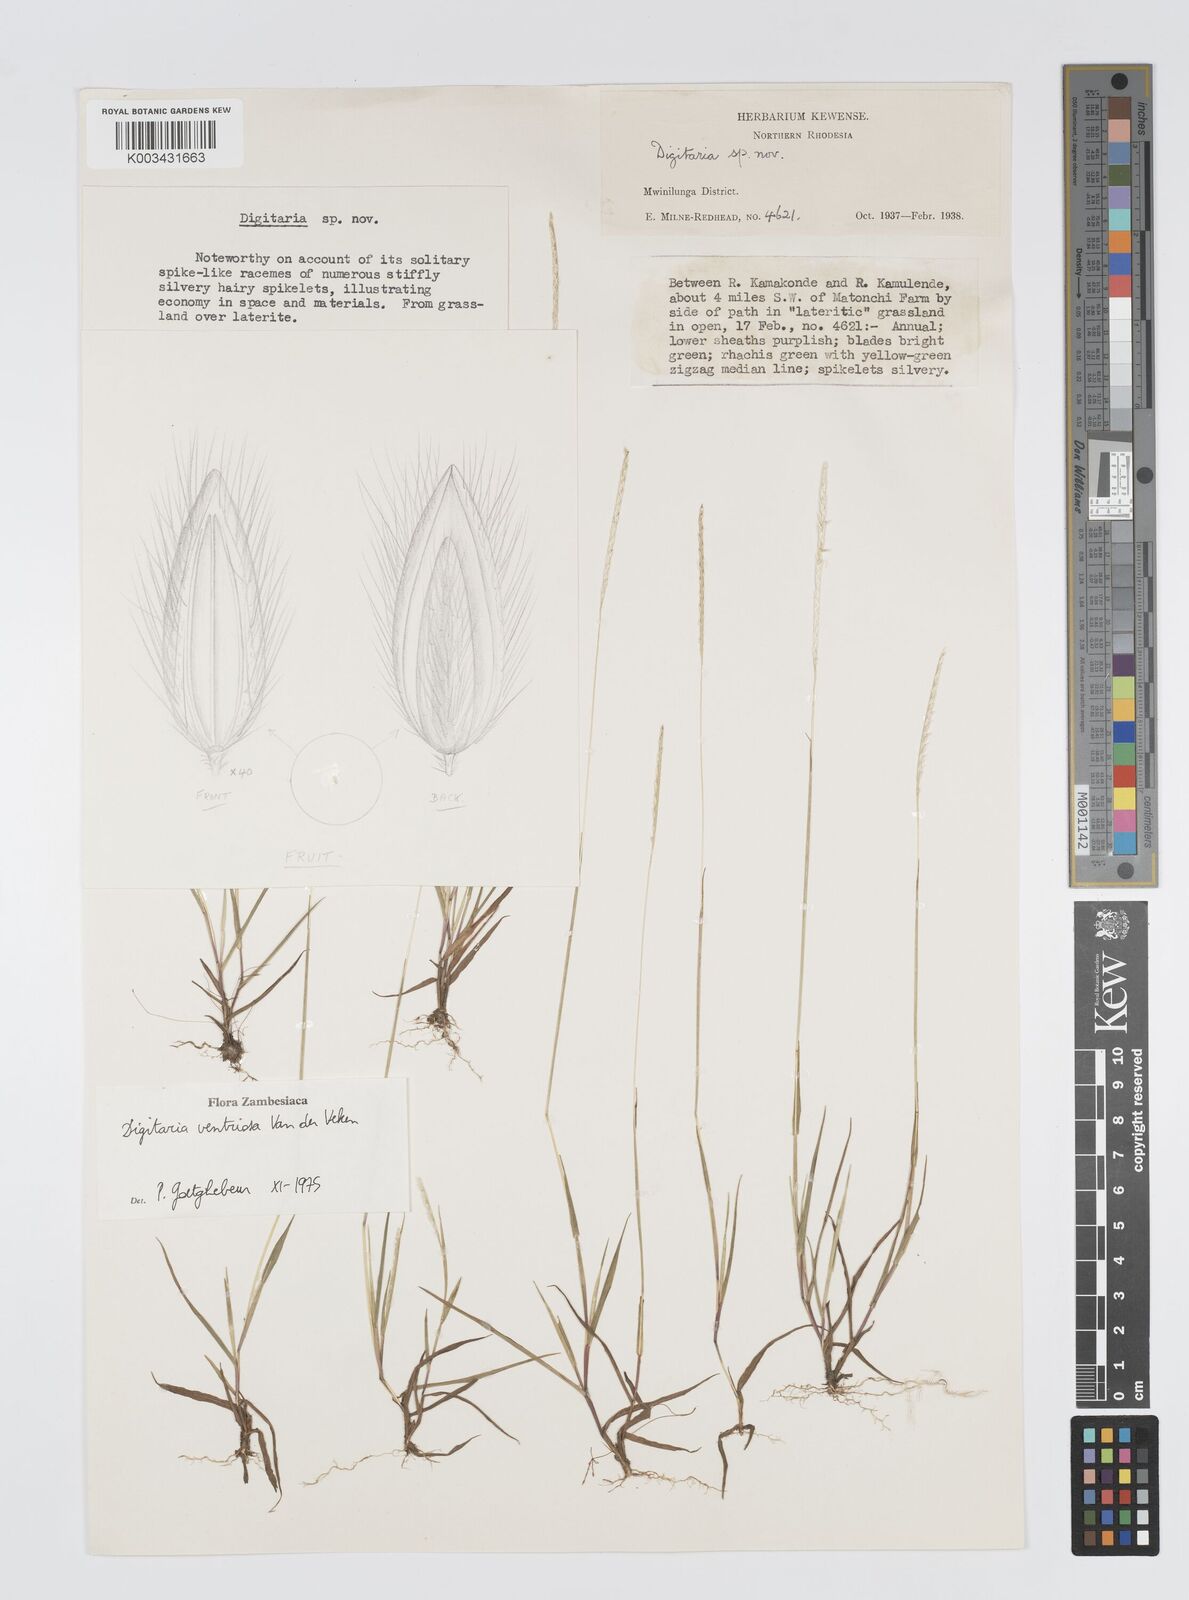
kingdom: Plantae
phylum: Tracheophyta
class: Liliopsida
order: Poales
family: Poaceae
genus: Digitaria
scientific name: Digitaria ventriosa
